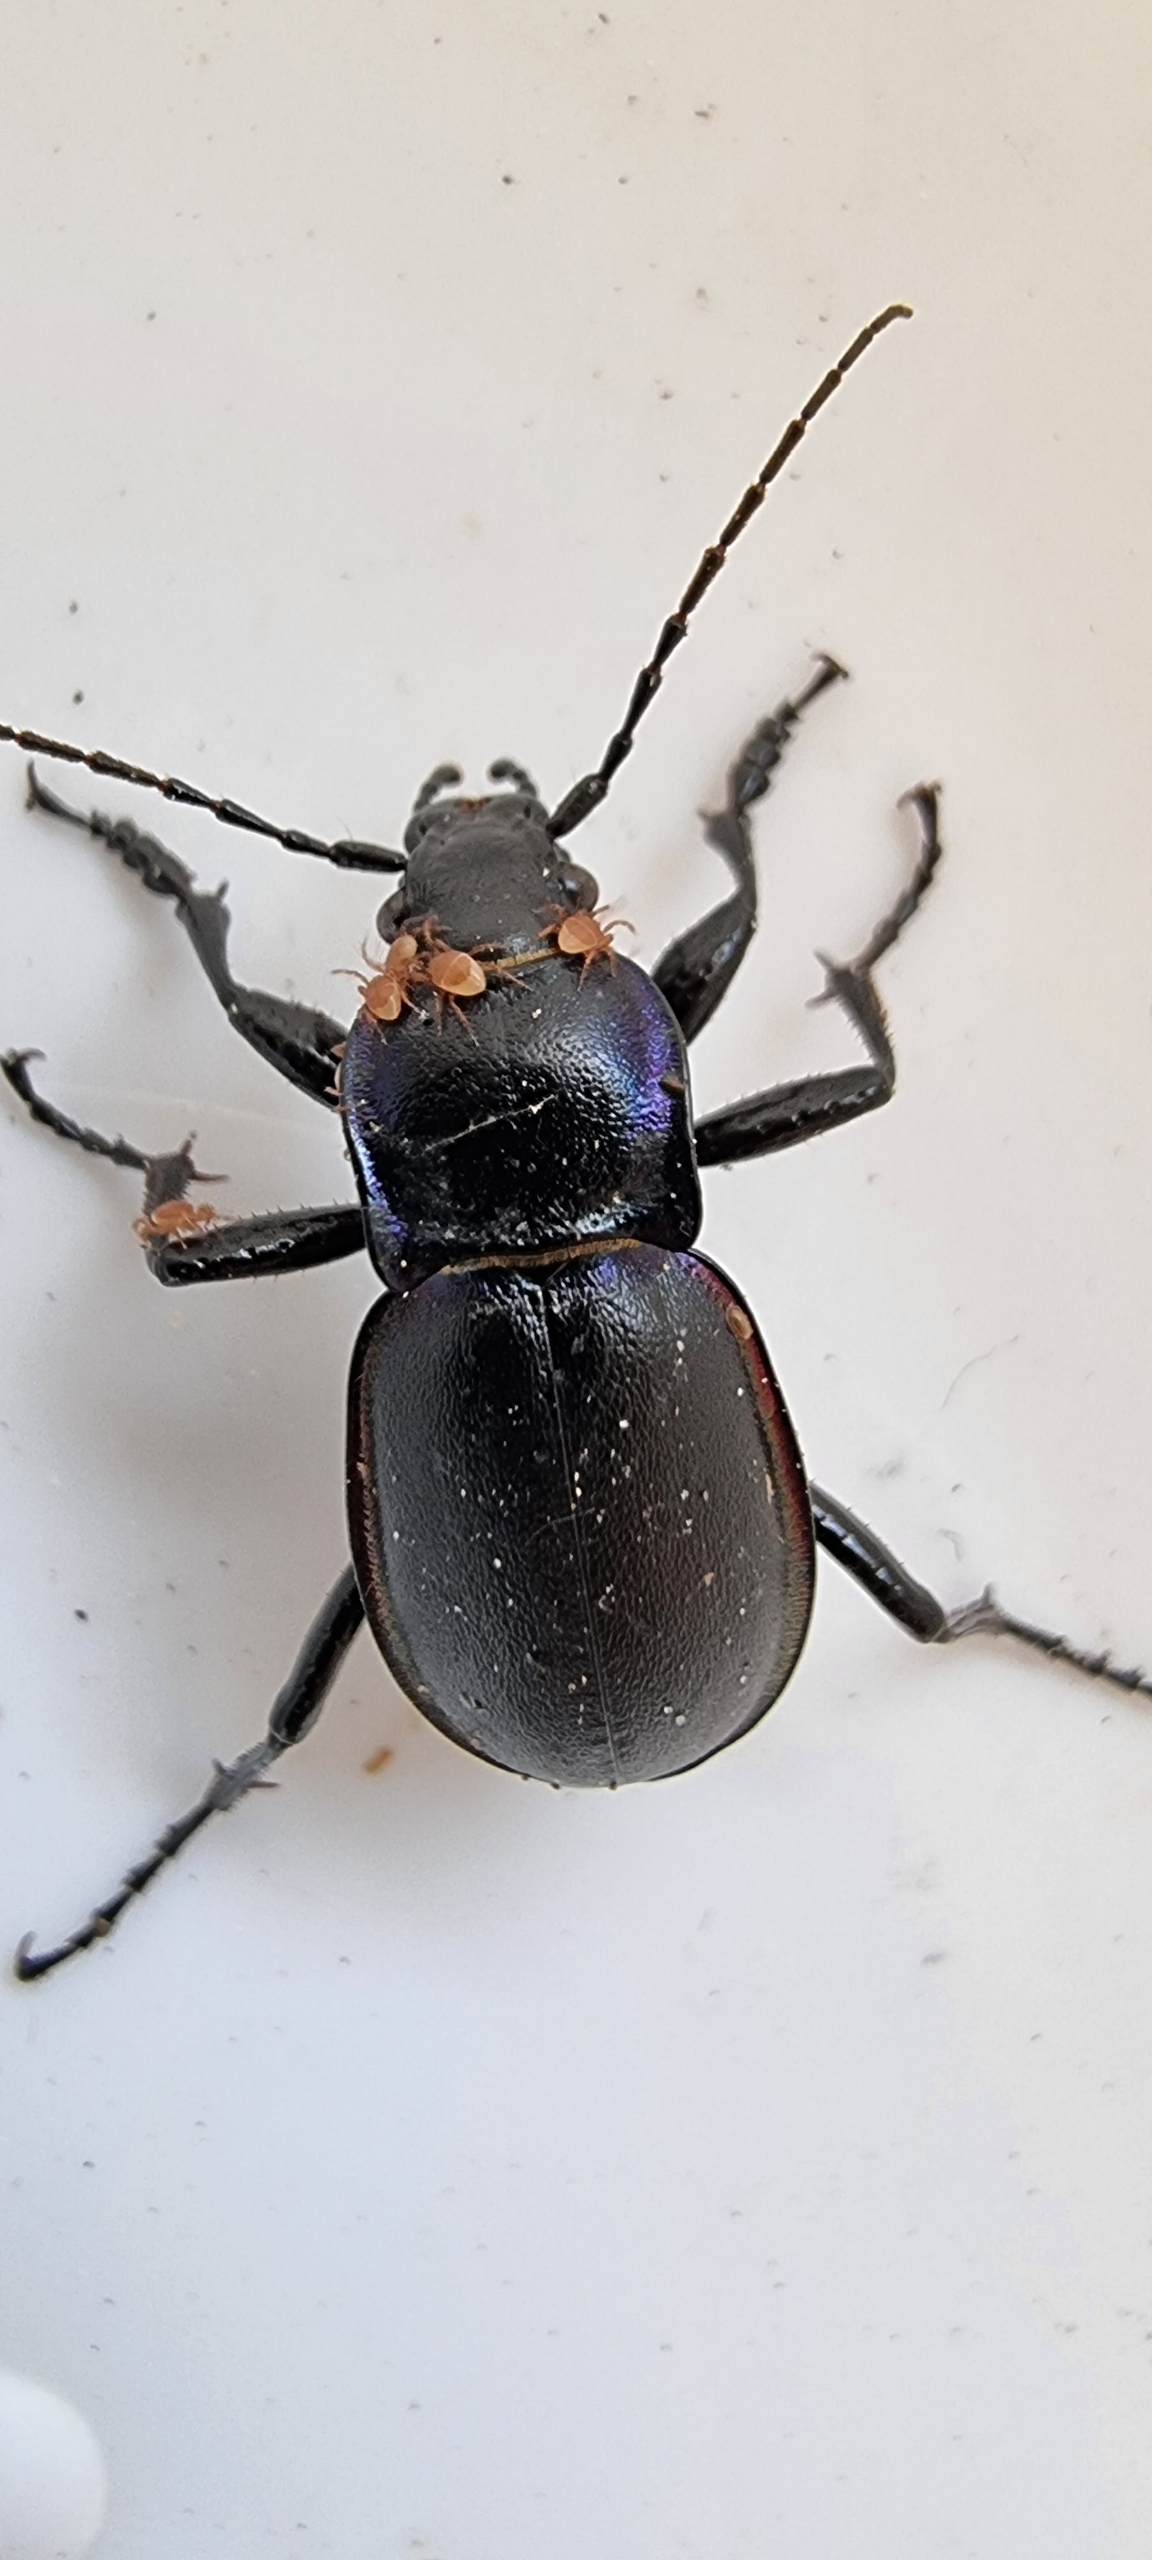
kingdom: Animalia
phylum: Arthropoda
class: Insecta
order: Coleoptera
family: Carabidae
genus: Carabus
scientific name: Carabus violaceus
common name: Violetrandet løber
